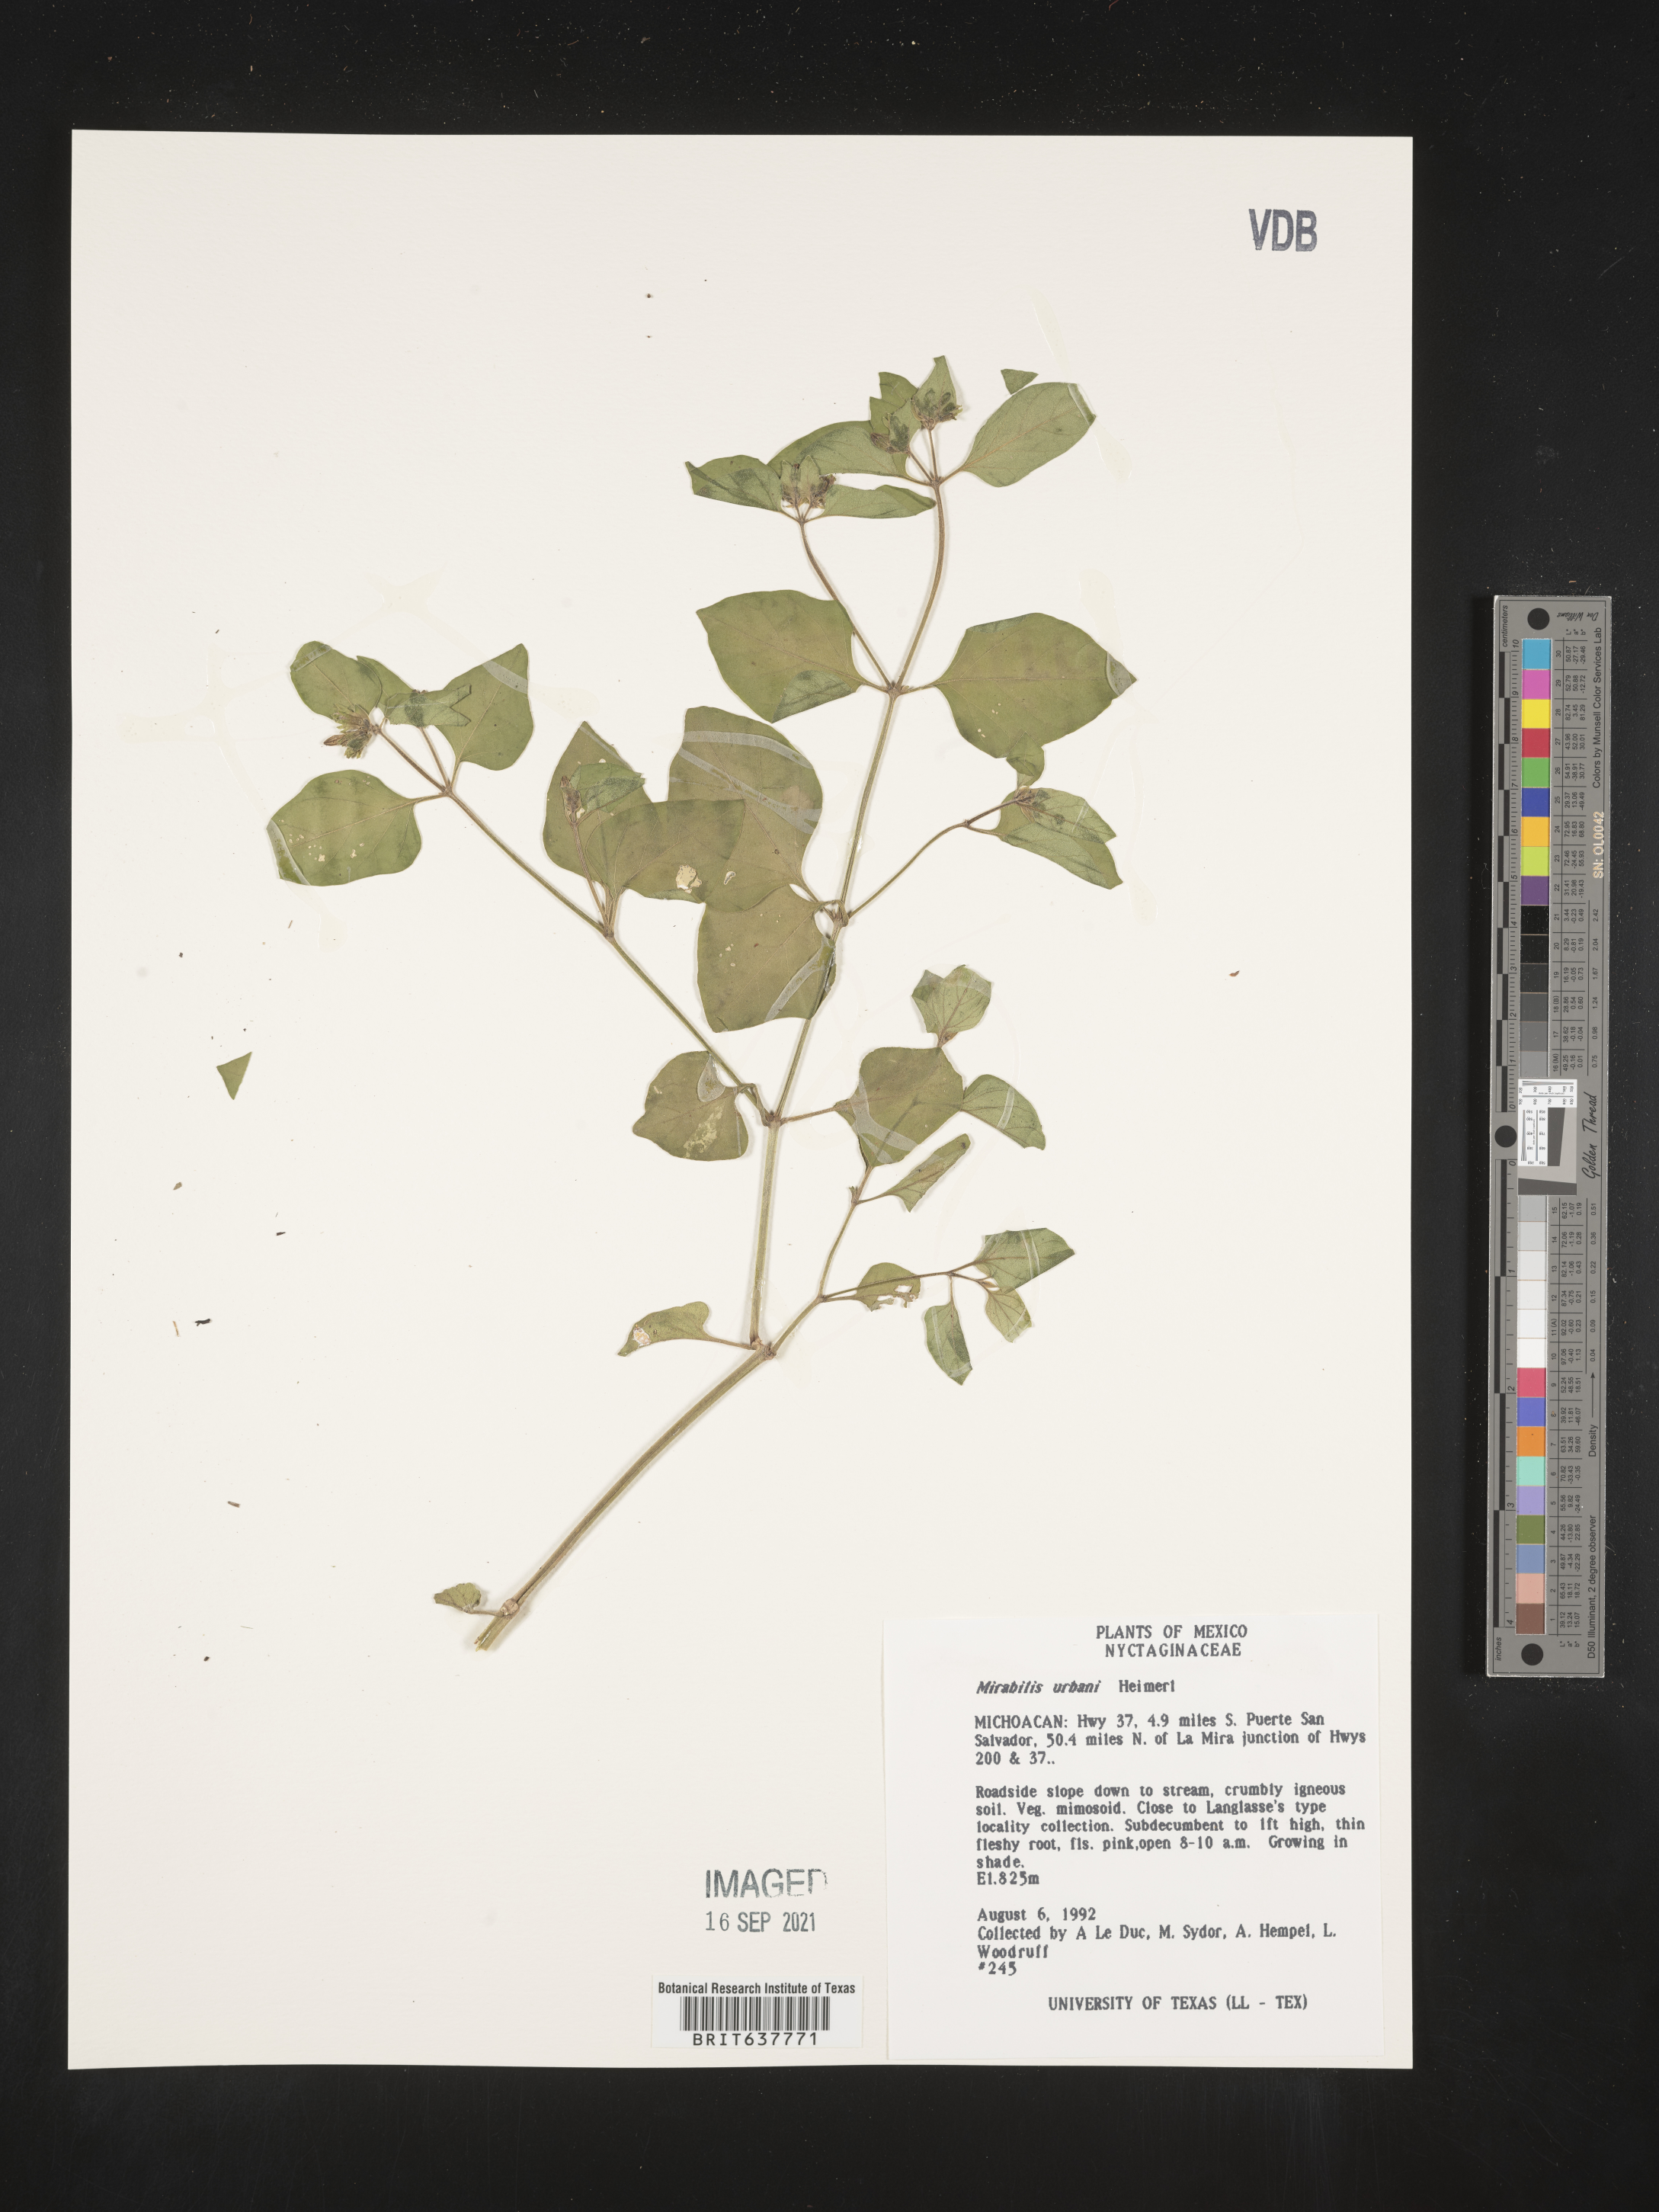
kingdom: Plantae
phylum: Tracheophyta
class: Magnoliopsida
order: Caryophyllales
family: Nyctaginaceae
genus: Mirabilis
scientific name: Mirabilis
